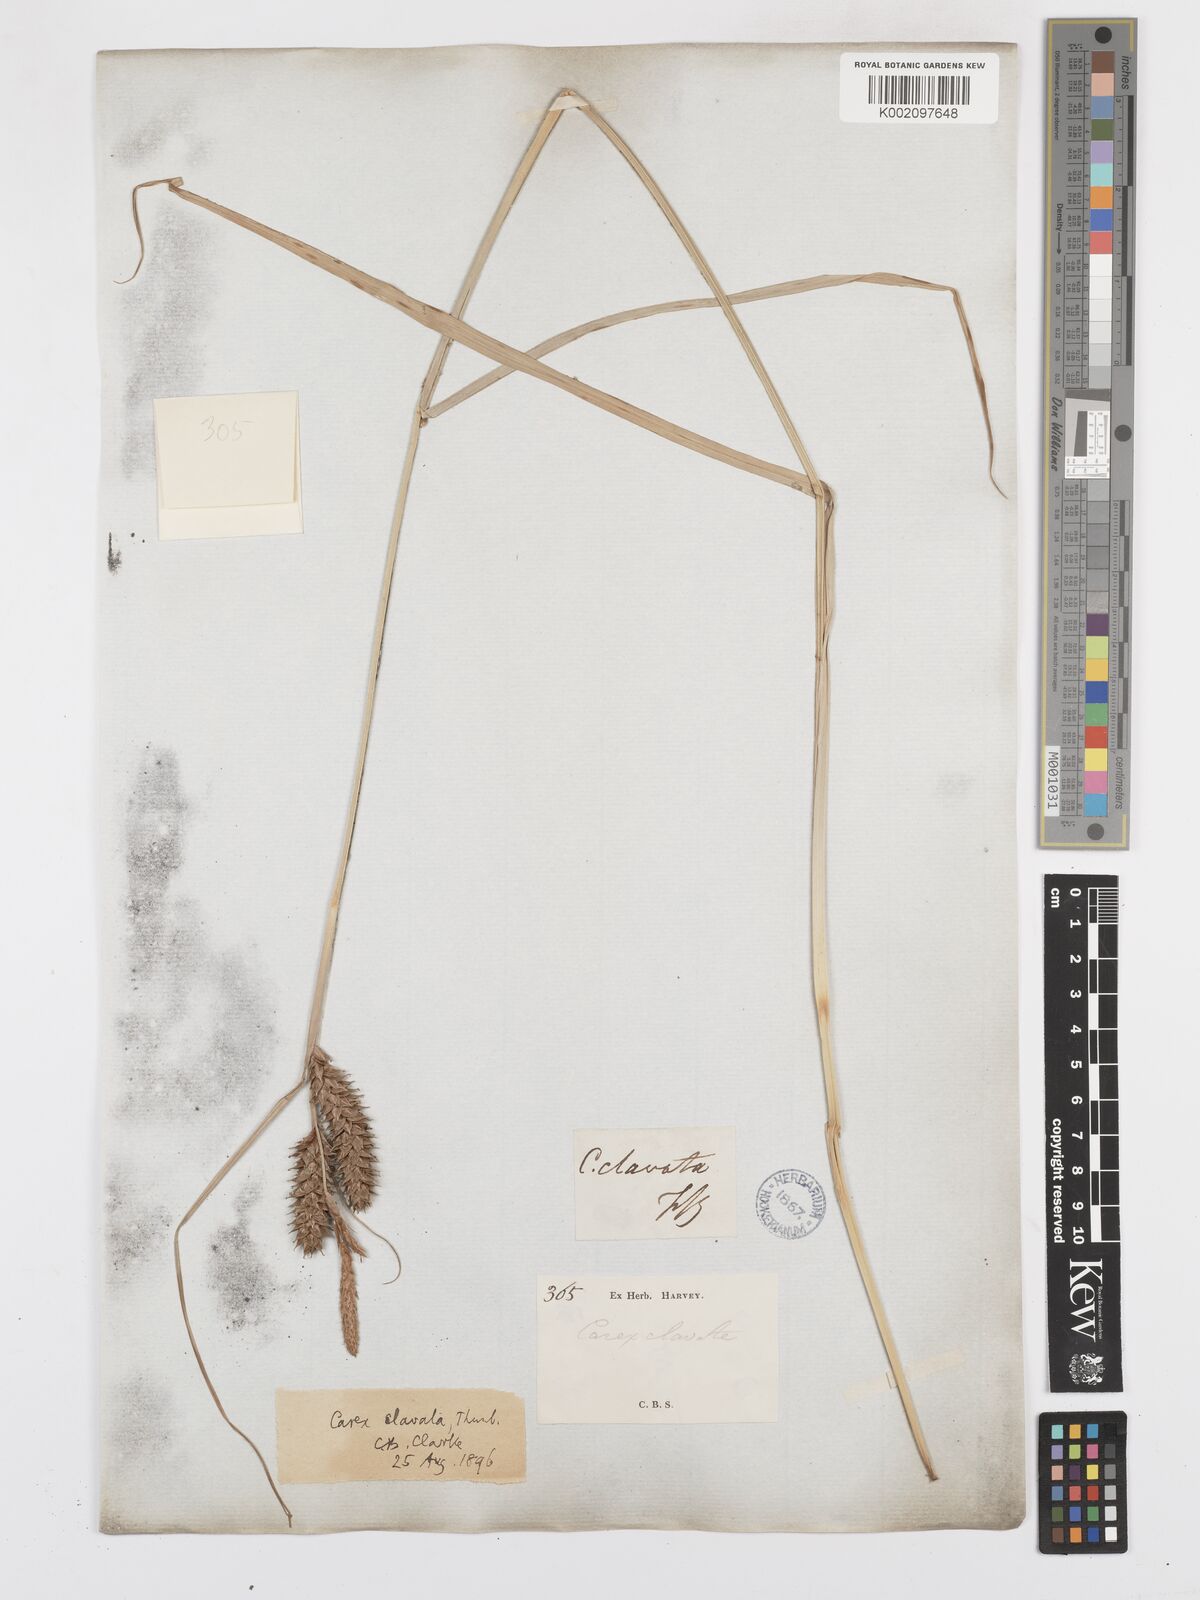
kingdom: Plantae
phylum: Tracheophyta
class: Liliopsida
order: Poales
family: Cyperaceae
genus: Carex
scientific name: Carex clavata
